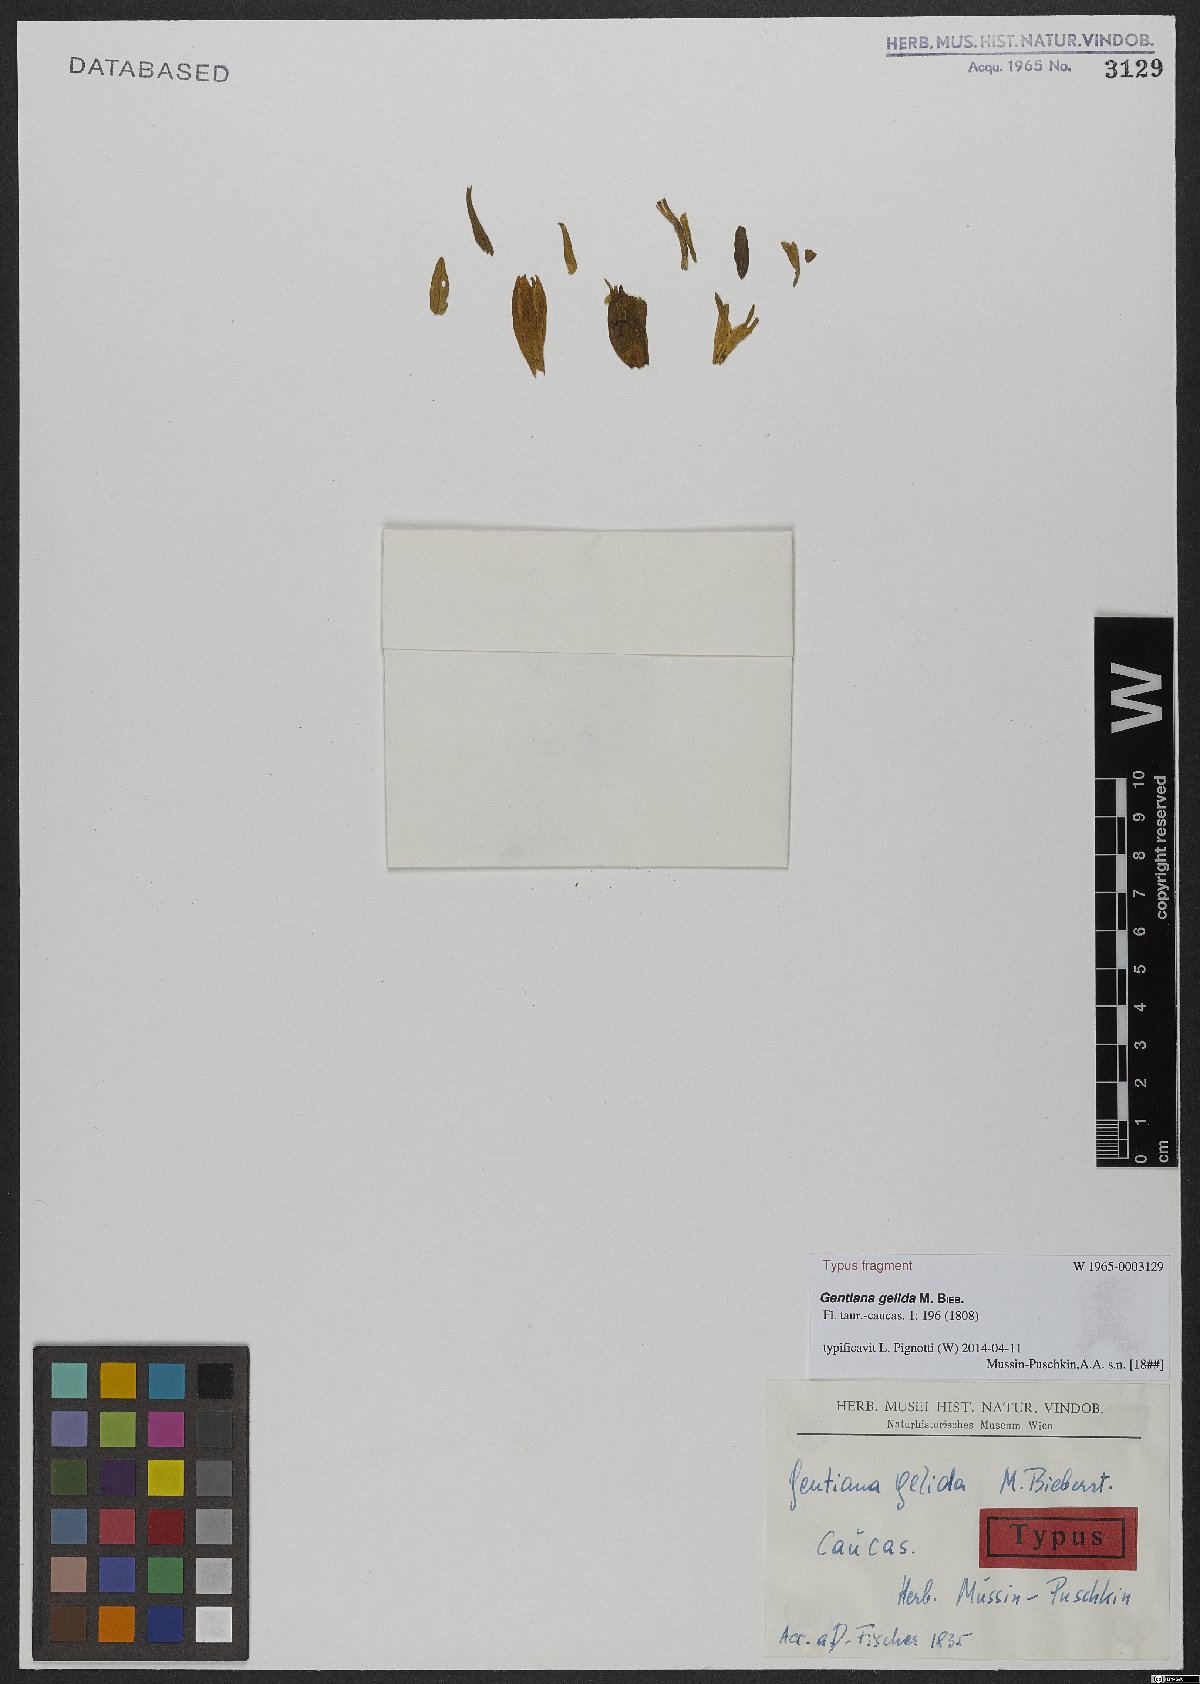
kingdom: Plantae
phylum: Tracheophyta
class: Magnoliopsida
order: Gentianales
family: Gentianaceae
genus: Gentiana
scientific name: Gentiana gelida
